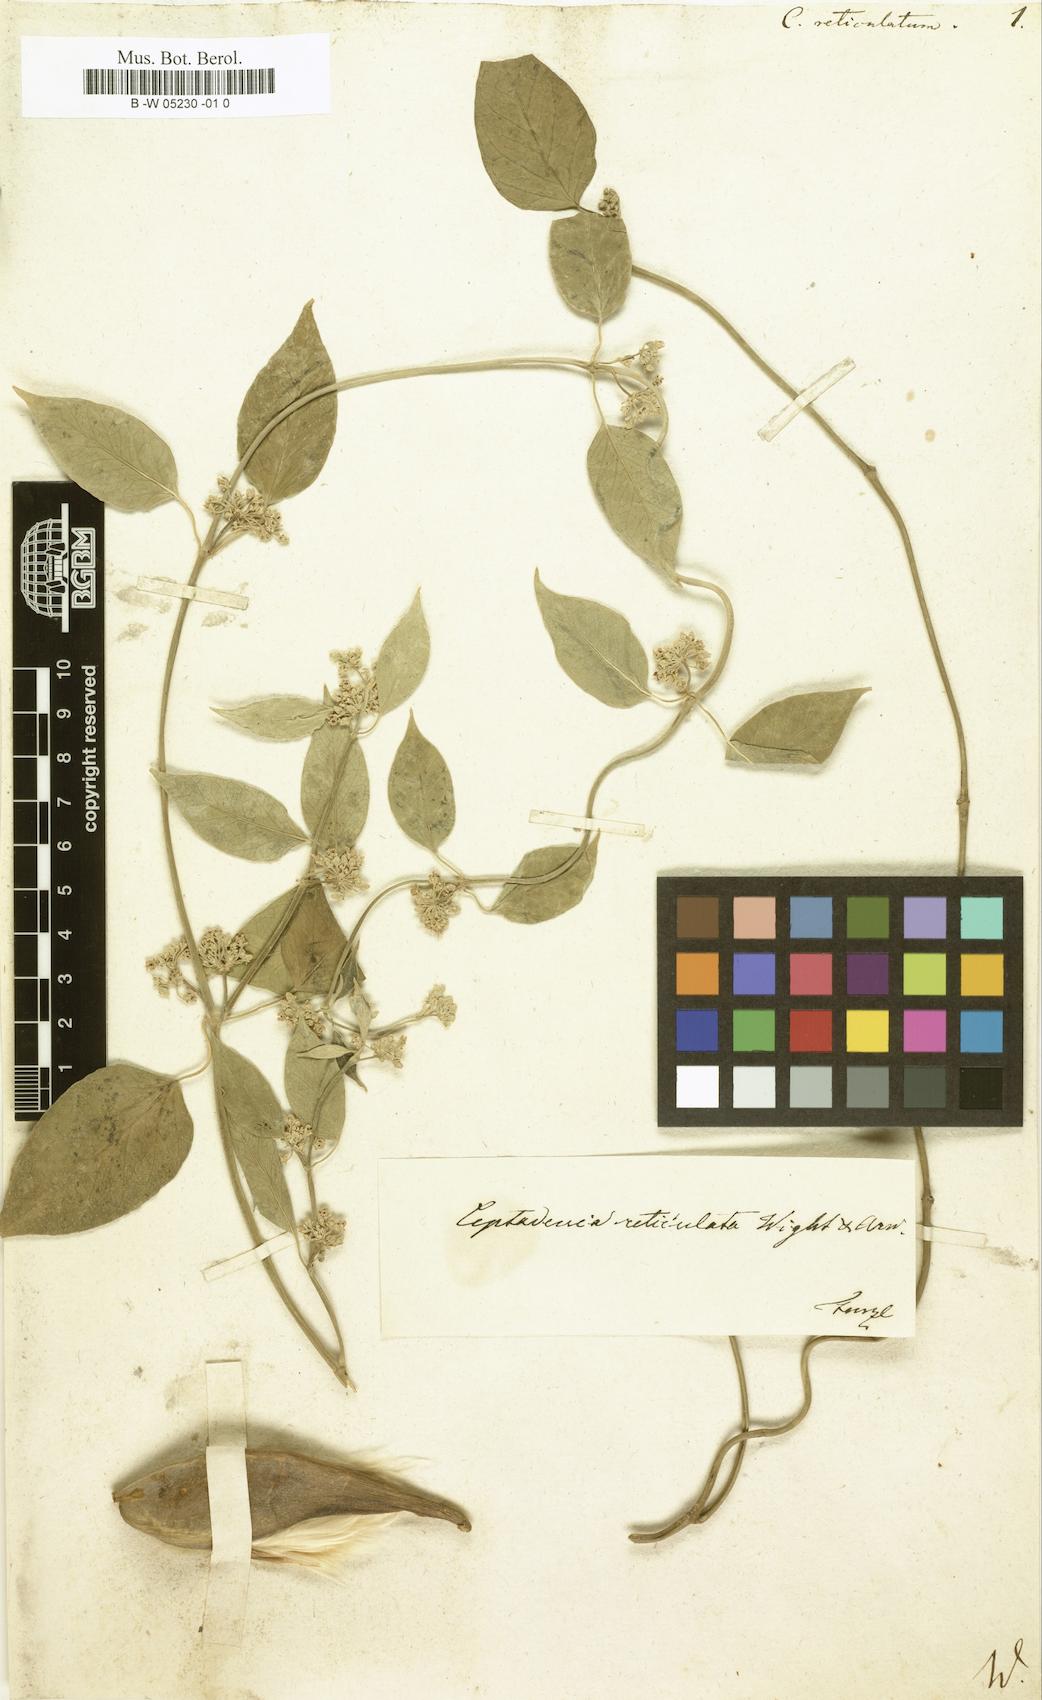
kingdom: Plantae
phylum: Tracheophyta
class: Magnoliopsida
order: Gentianales
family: Apocynaceae
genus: Leptadenia
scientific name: Leptadenia reticulata
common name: Leptadenia
